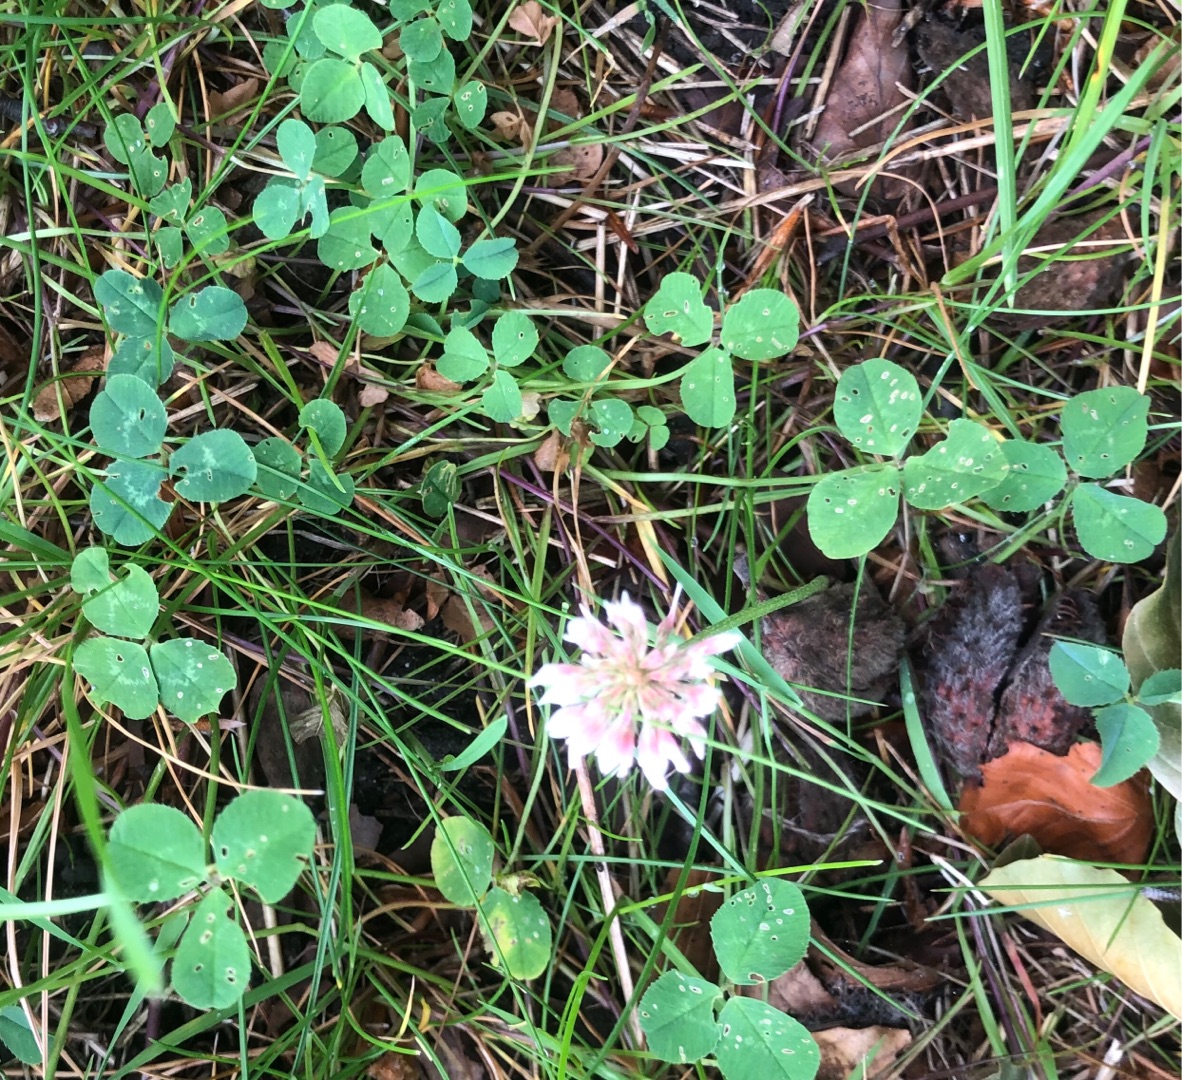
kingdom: Plantae
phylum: Tracheophyta
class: Magnoliopsida
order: Fabales
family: Fabaceae
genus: Trifolium
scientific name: Trifolium repens
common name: Hvid-kløver
